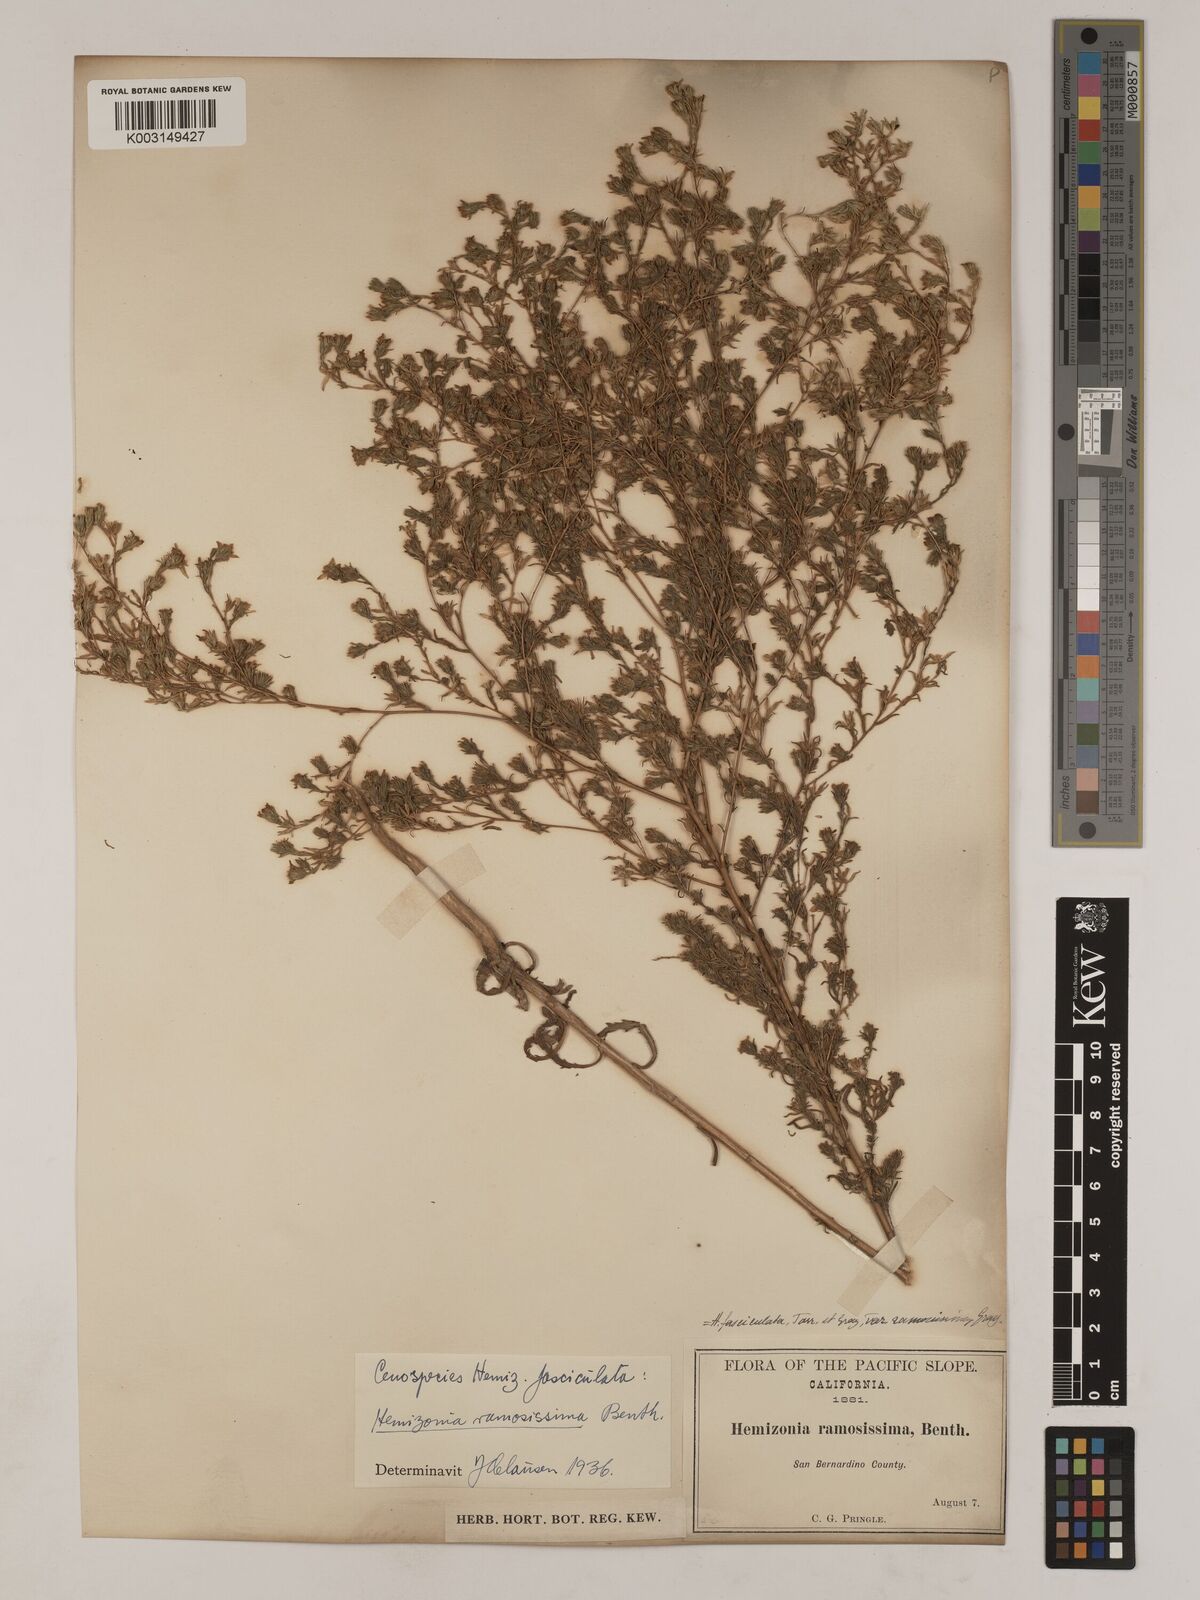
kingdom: Plantae
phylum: Tracheophyta
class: Magnoliopsida
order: Asterales
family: Asteraceae
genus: Deinandra
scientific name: Deinandra fasciculata
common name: Clustered tarweed
